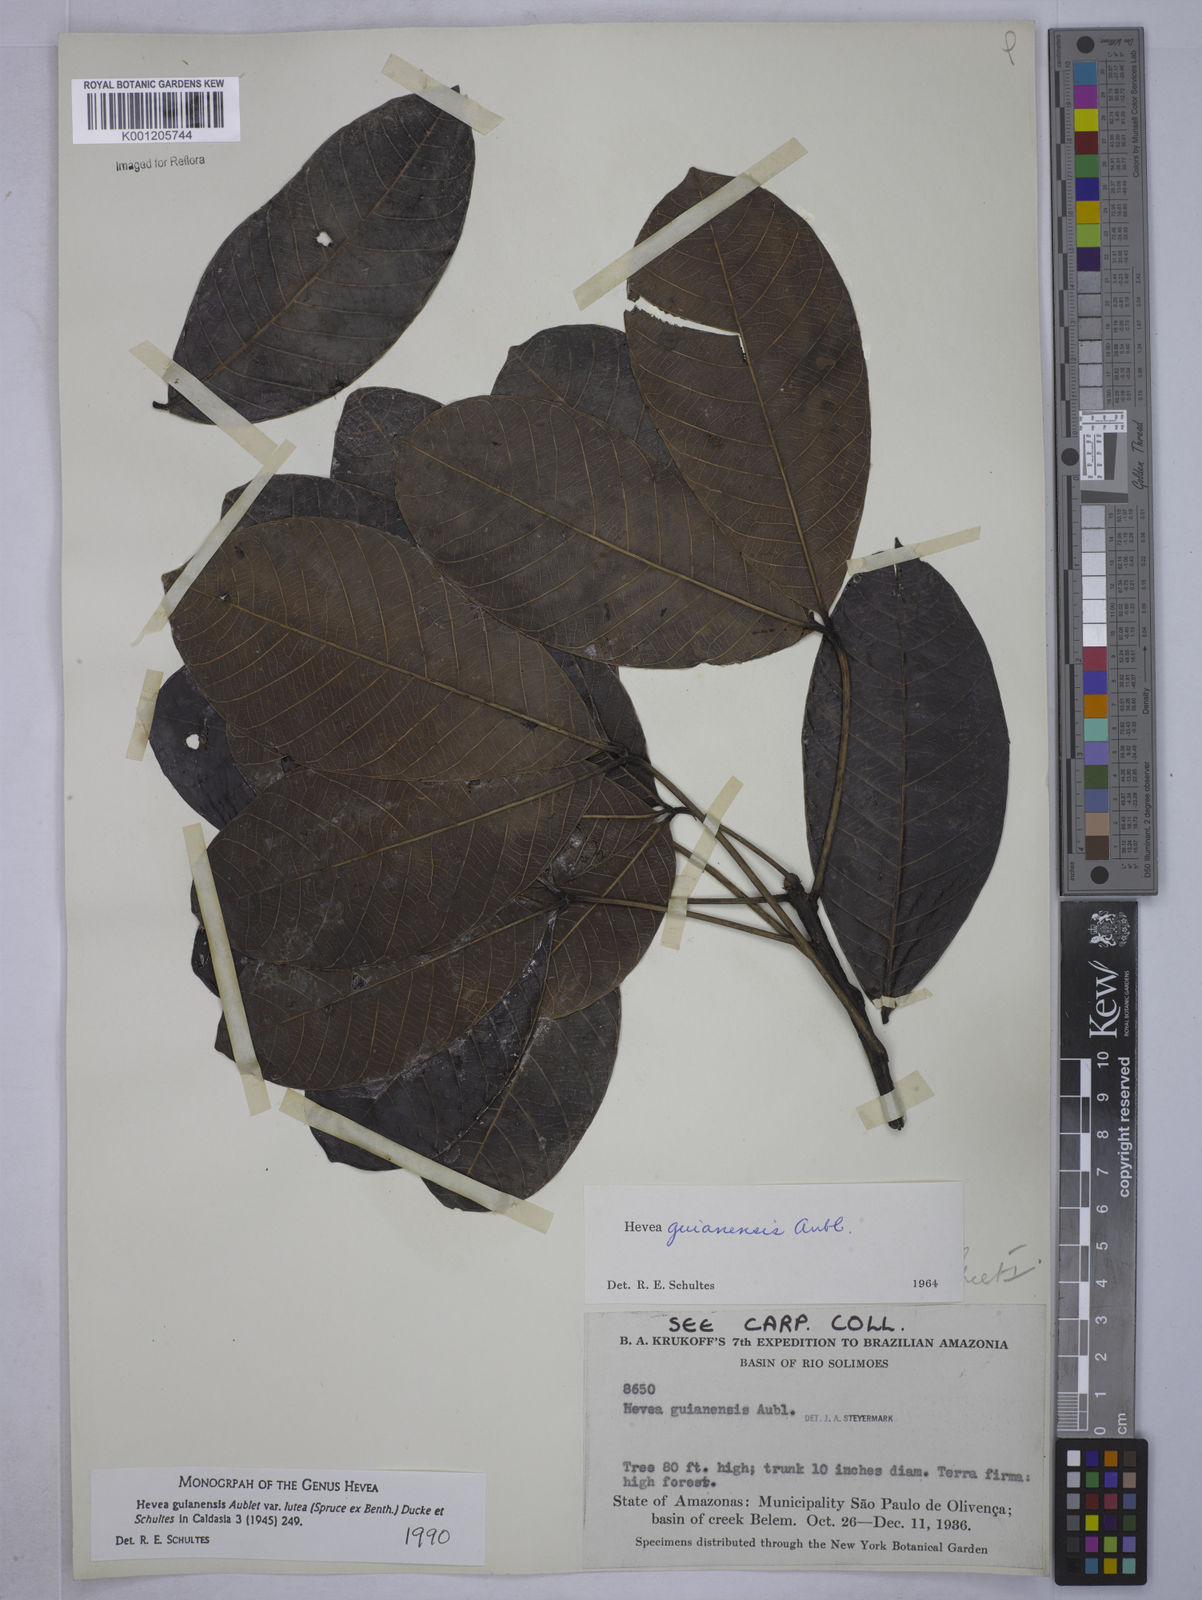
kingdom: Plantae
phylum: Tracheophyta
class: Magnoliopsida
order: Malpighiales
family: Euphorbiaceae
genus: Hevea
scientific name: Hevea guianensis
